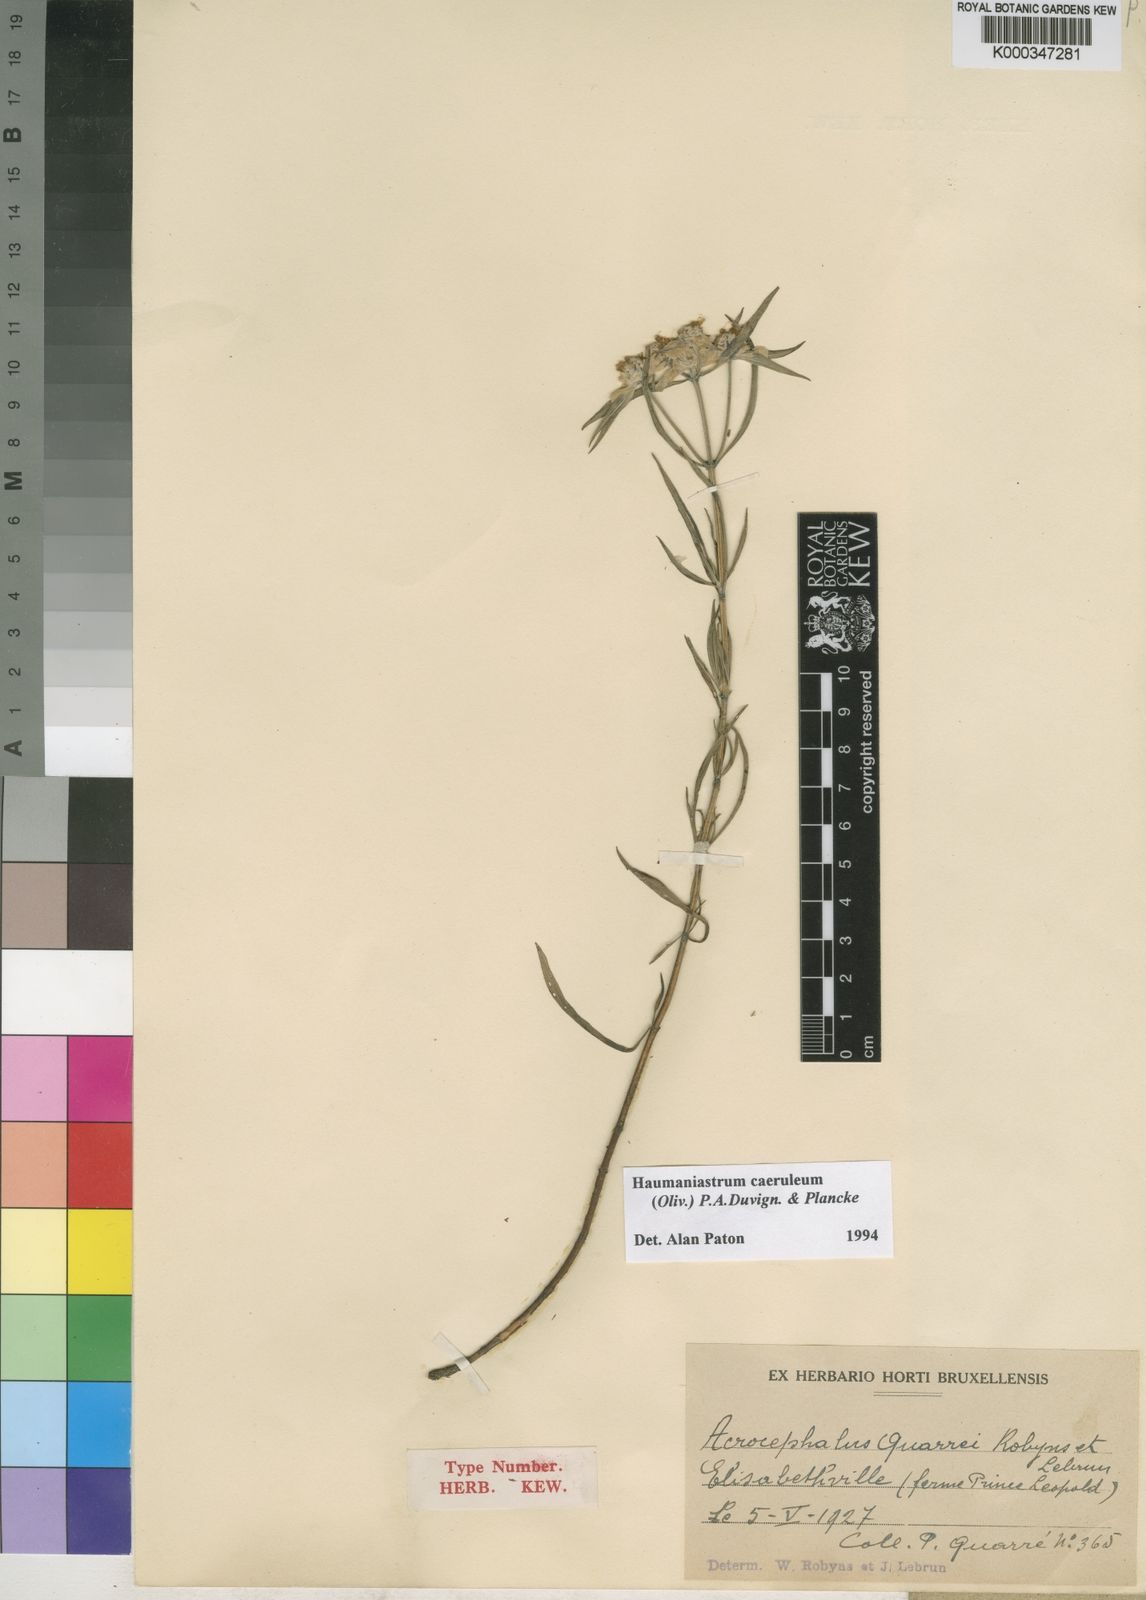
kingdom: Plantae
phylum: Tracheophyta
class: Magnoliopsida
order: Lamiales
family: Lamiaceae
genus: Haumaniastrum
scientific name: Haumaniastrum caeruleum
